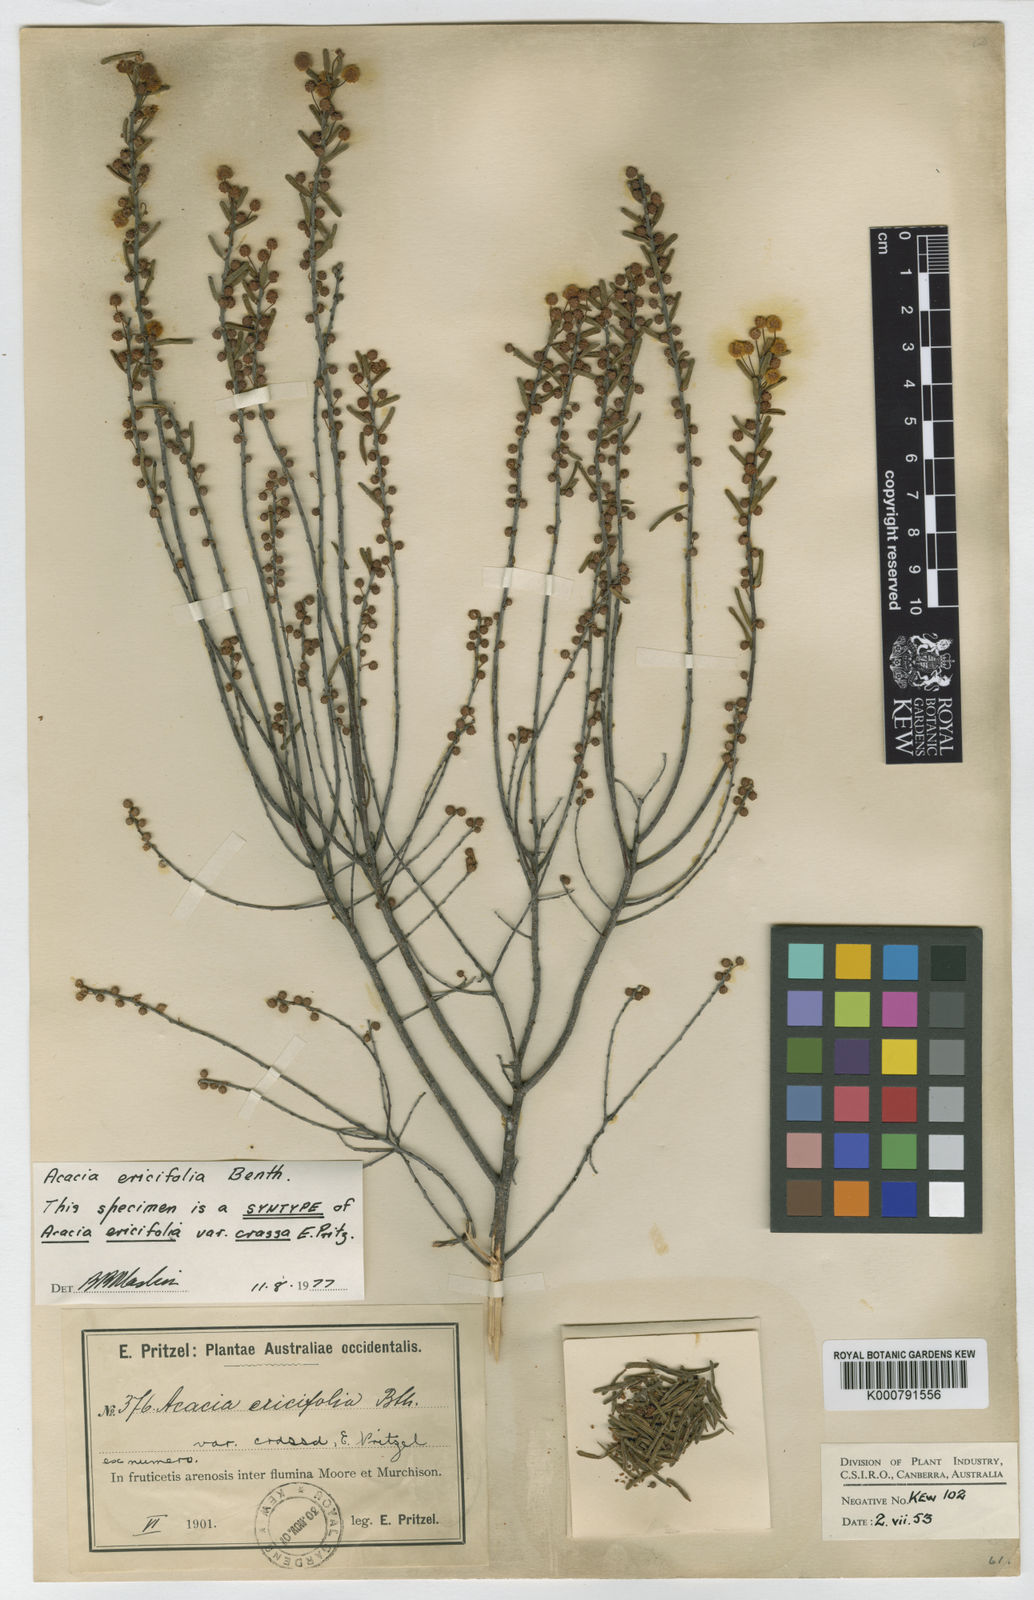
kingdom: Plantae
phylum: Tracheophyta
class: Magnoliopsida
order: Fabales
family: Fabaceae
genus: Acacia
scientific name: Acacia ericifolia
